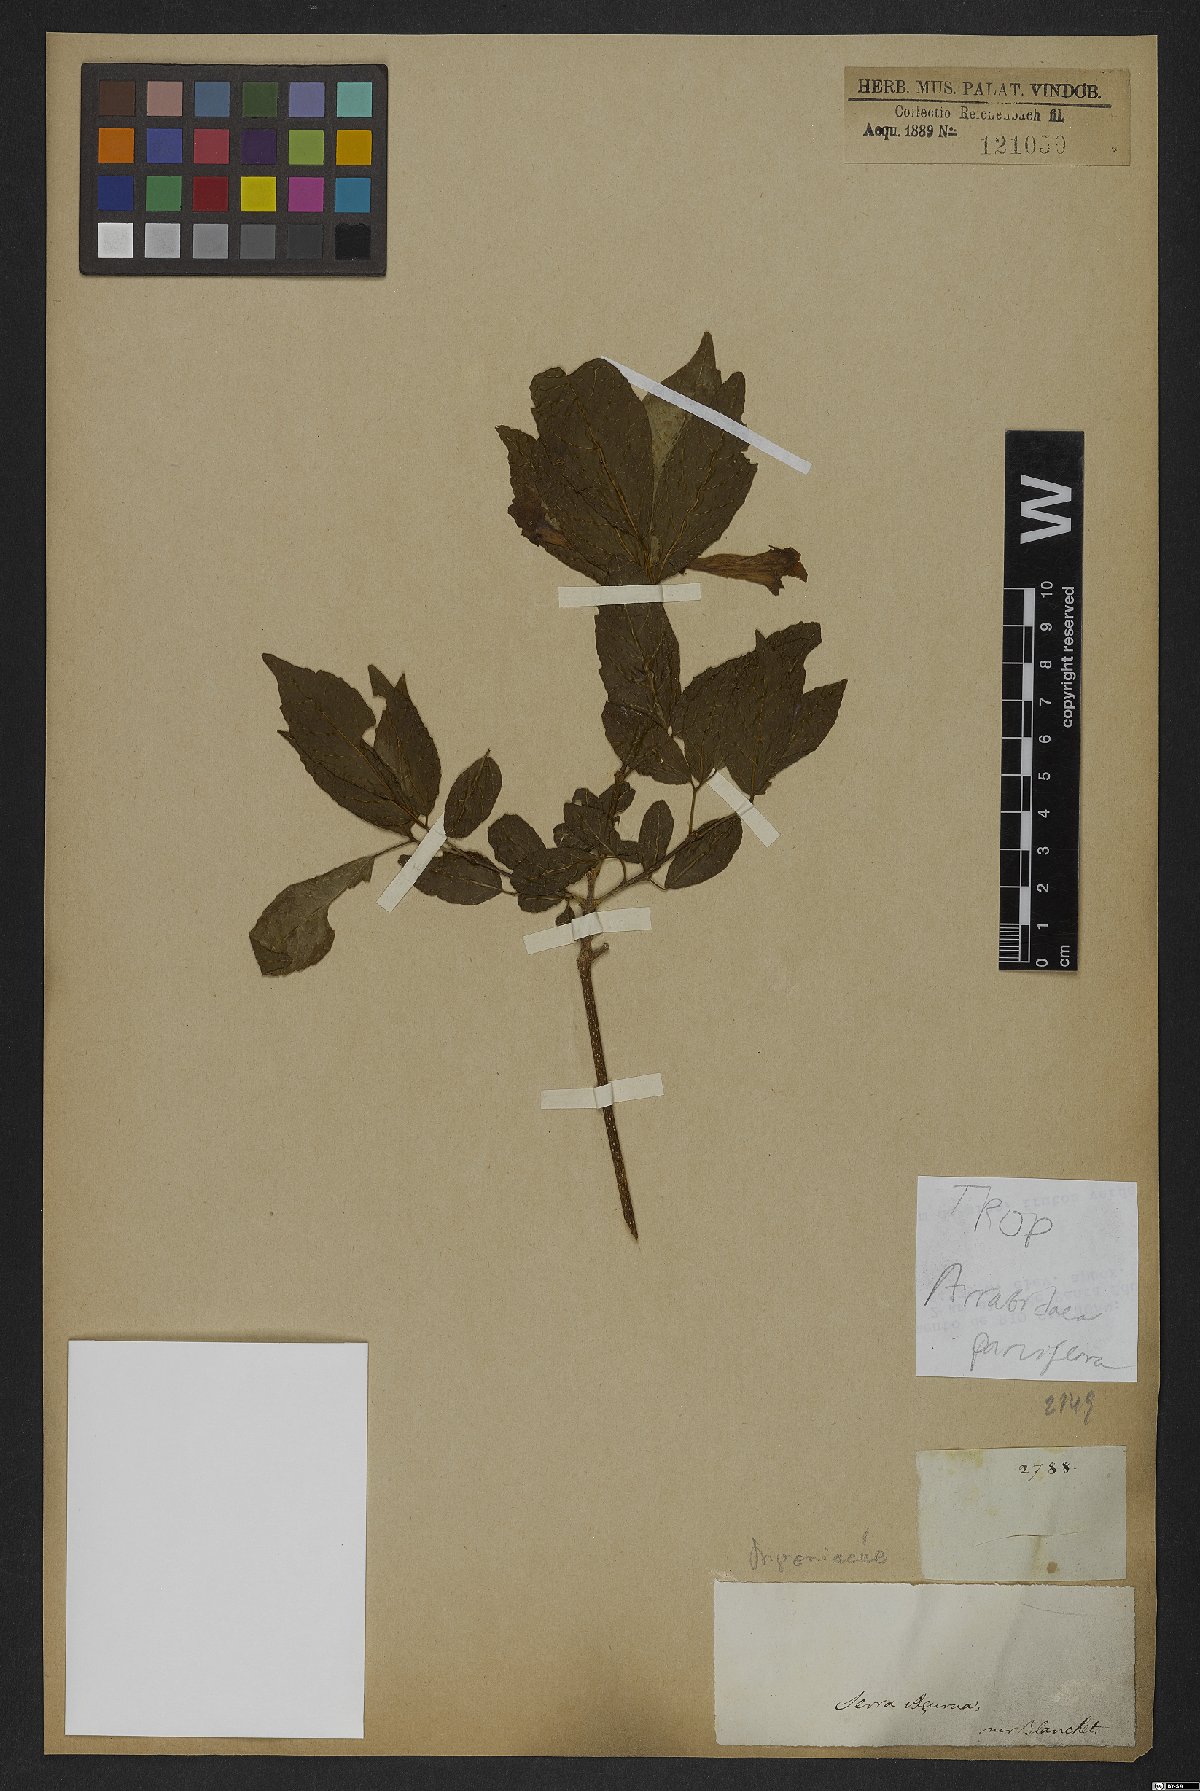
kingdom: Plantae
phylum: Tracheophyta
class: Magnoliopsida
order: Lamiales
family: Bignoniaceae
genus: Tanaecium
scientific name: Tanaecium parviflorum
